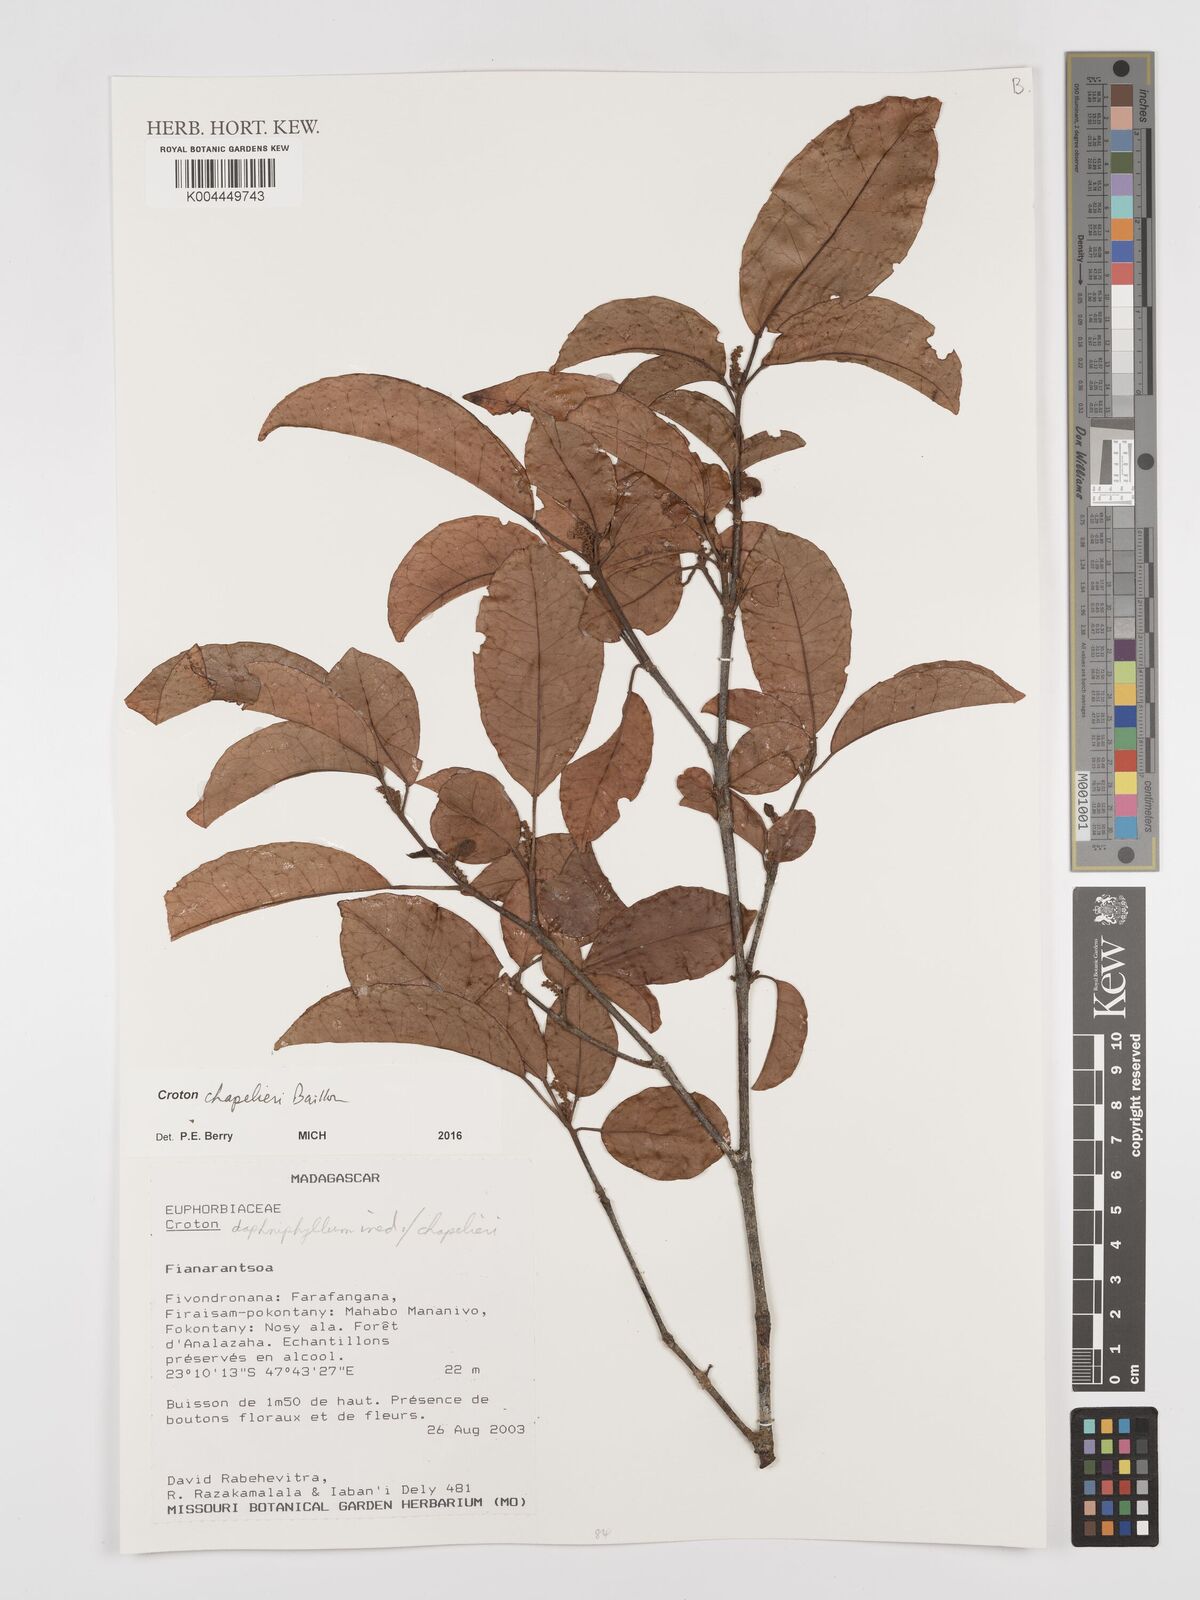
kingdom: Plantae
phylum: Tracheophyta
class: Magnoliopsida
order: Malpighiales
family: Euphorbiaceae
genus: Croton
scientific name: Croton chapelieri
